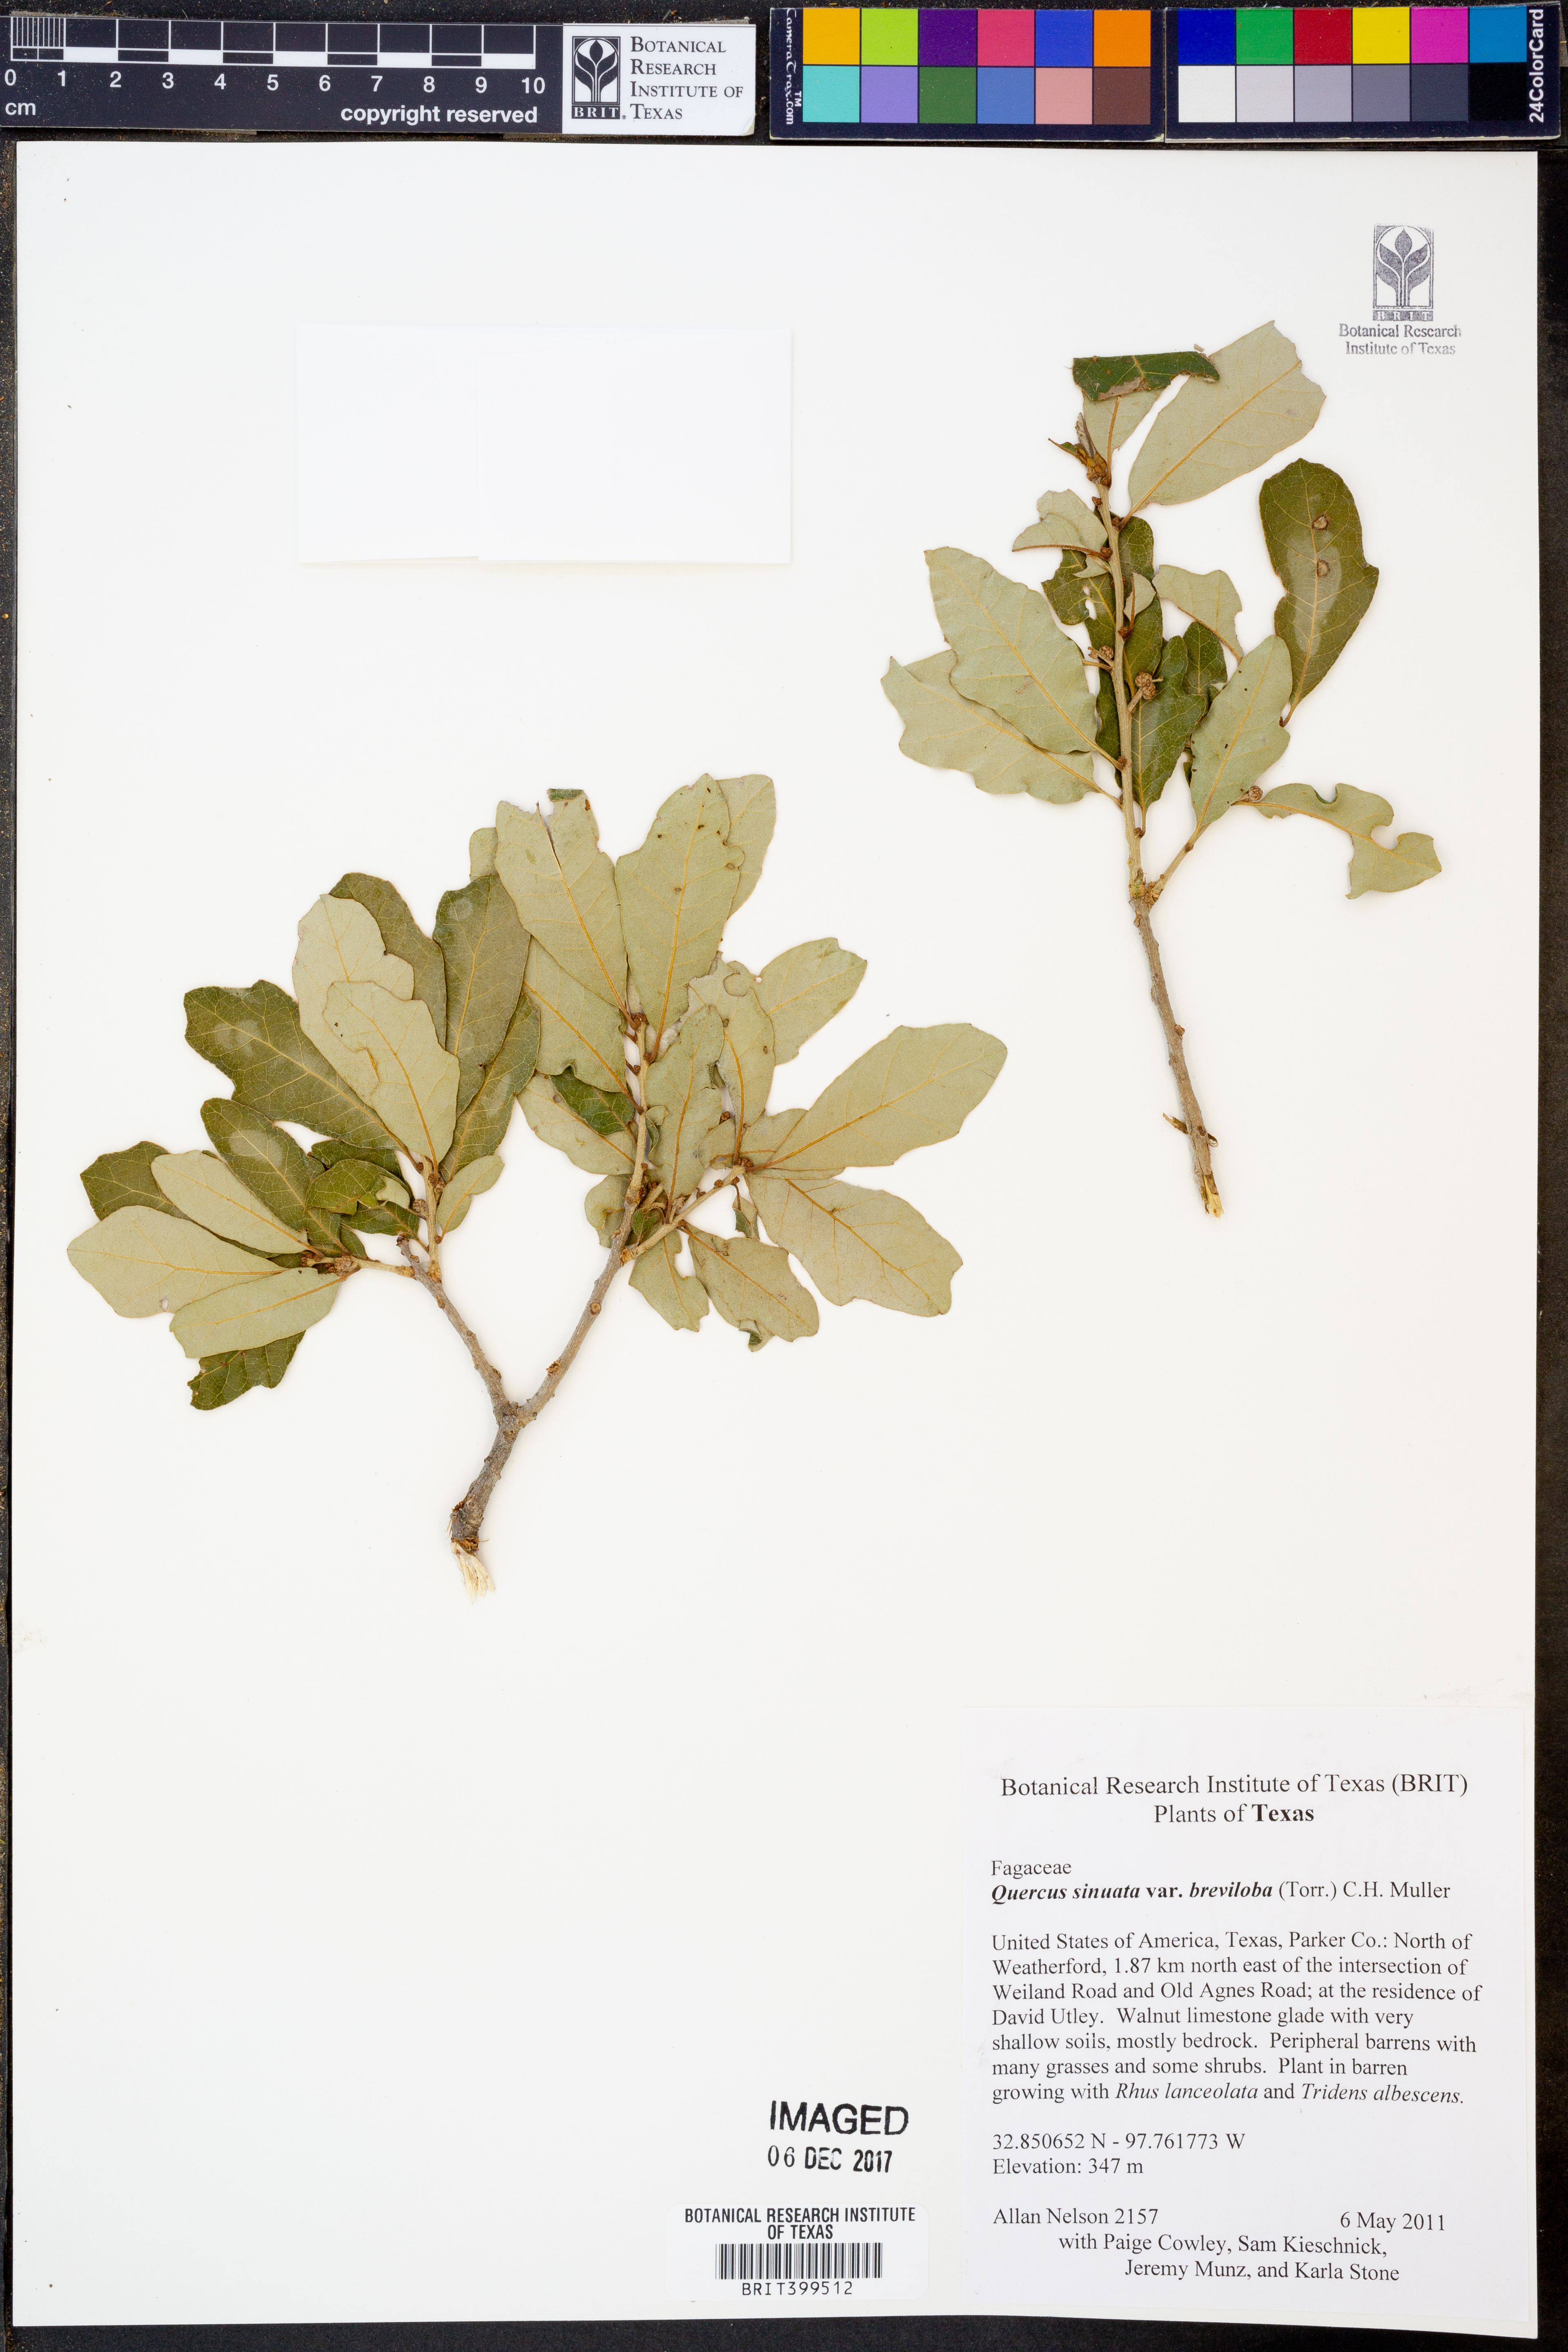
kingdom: Plantae
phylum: Tracheophyta
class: Magnoliopsida
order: Fagales
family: Fagaceae
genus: Quercus
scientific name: Quercus sinuata
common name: Durand oak
